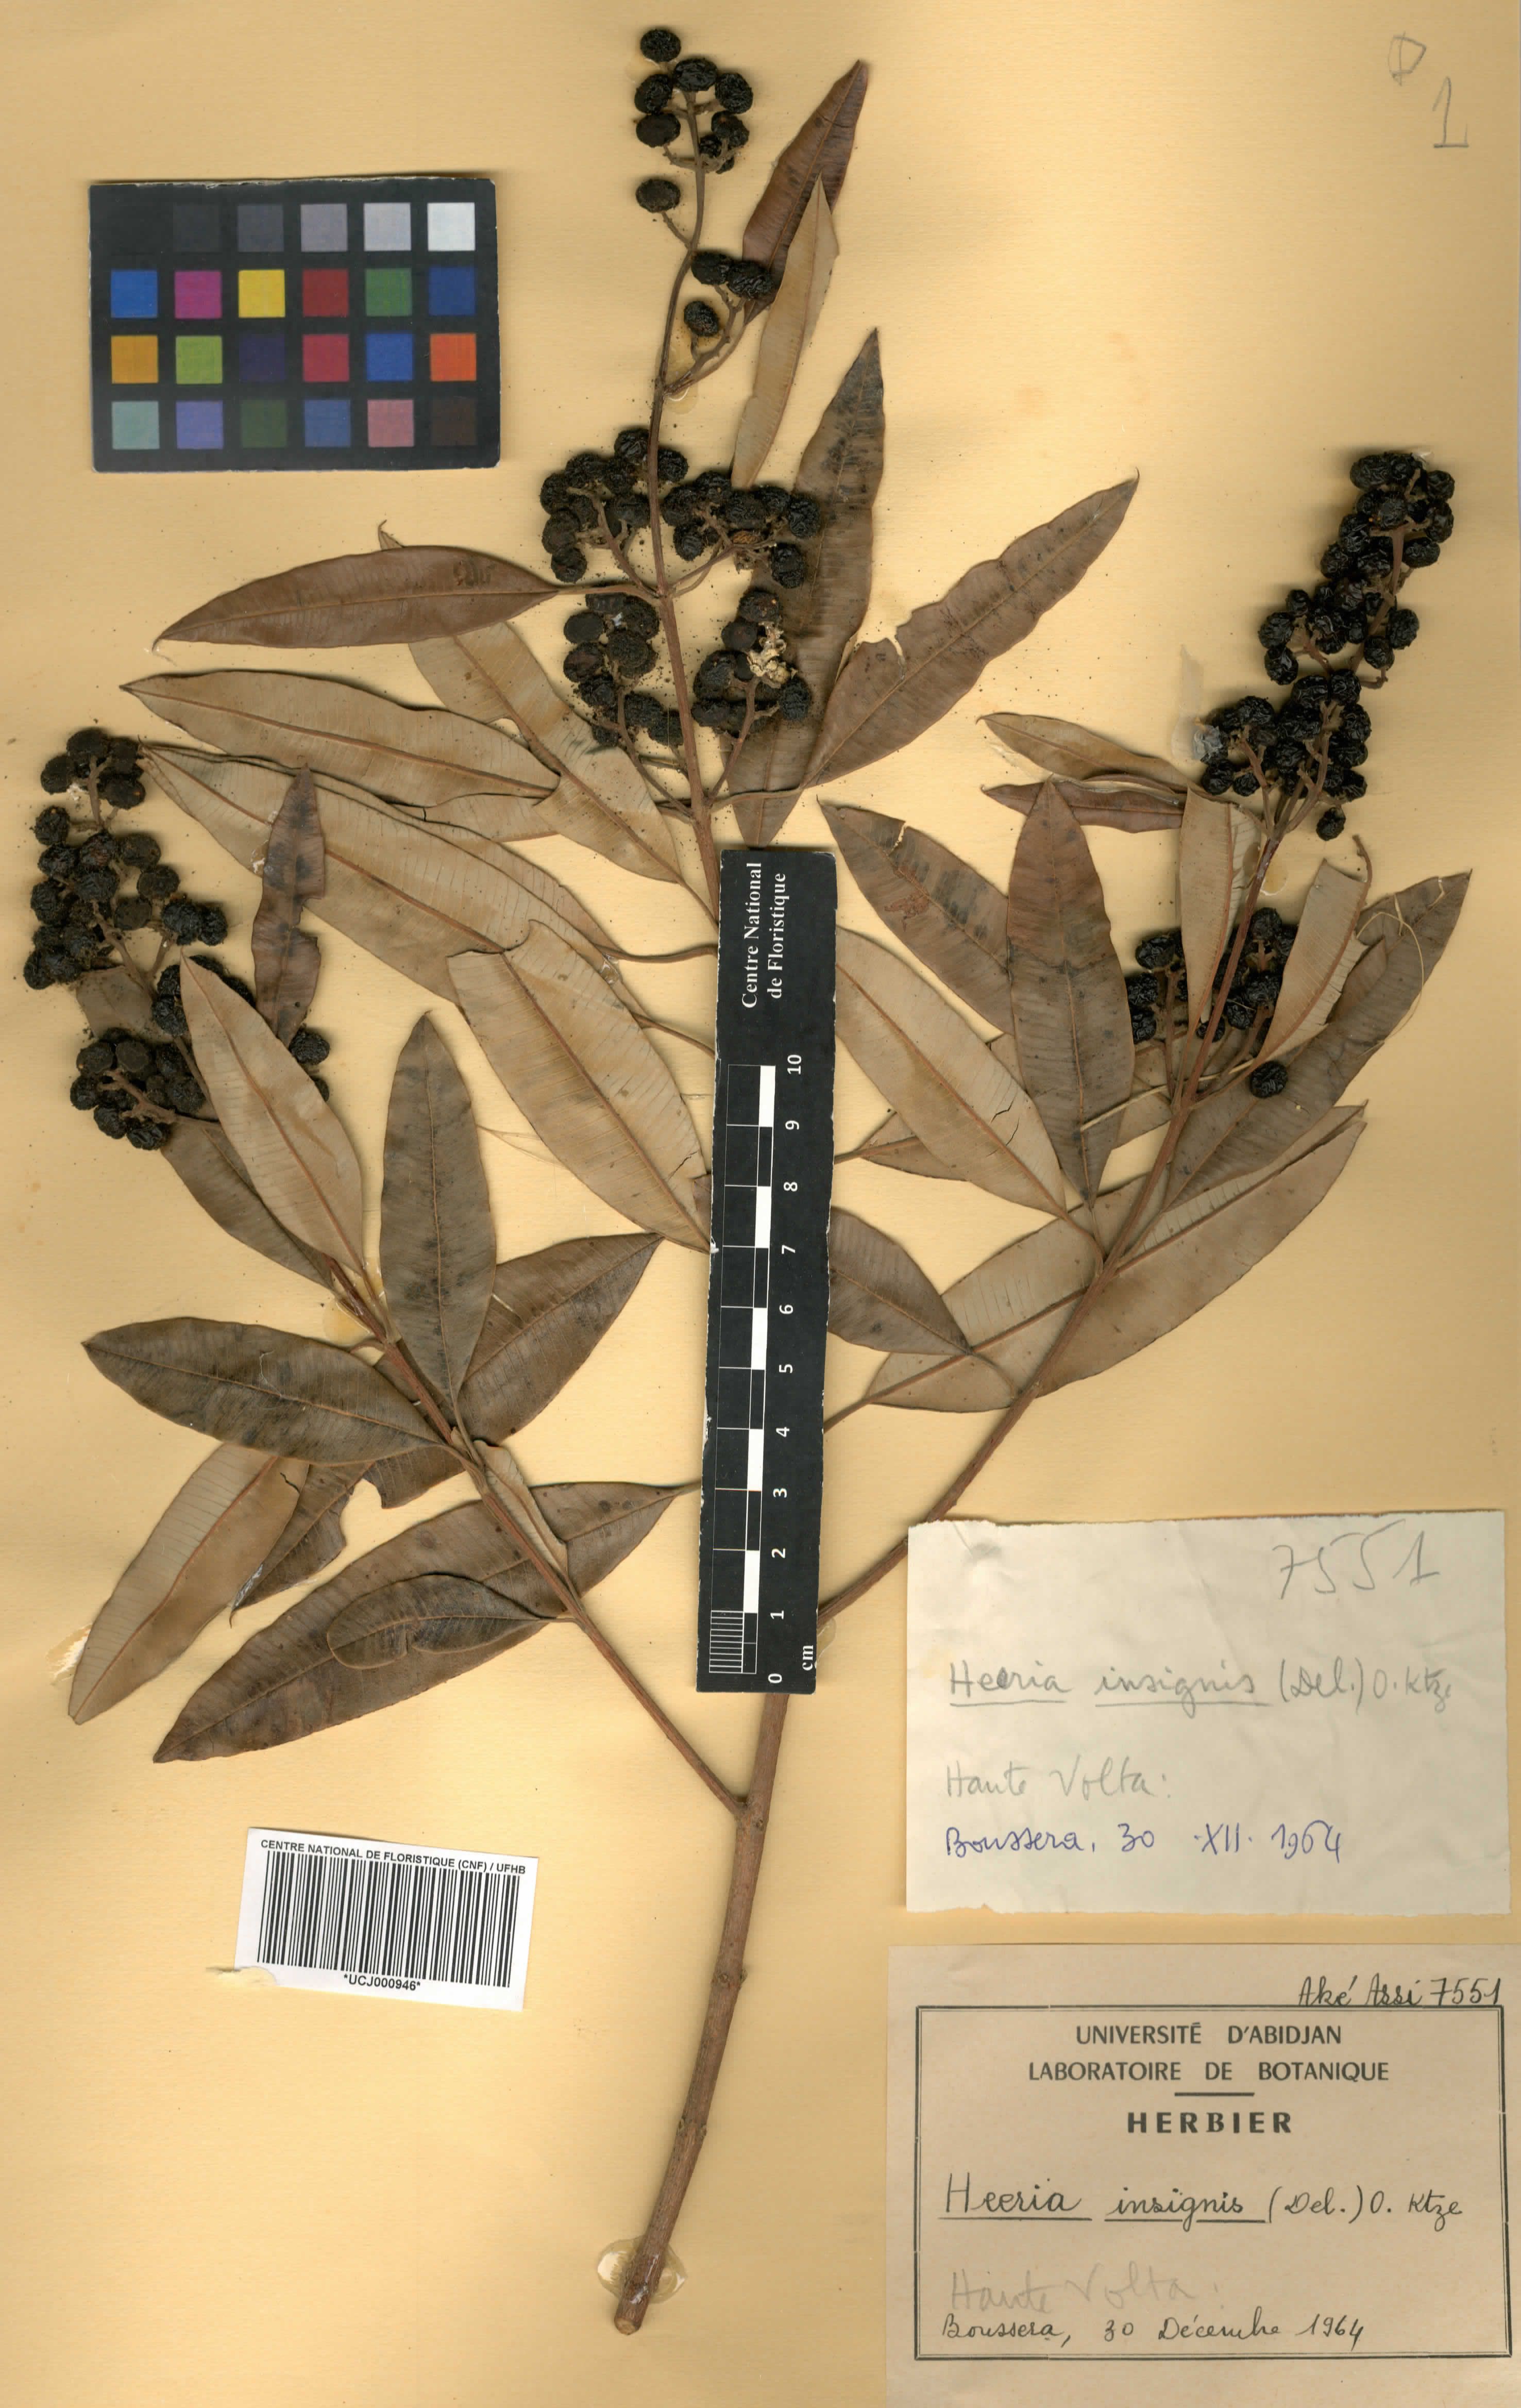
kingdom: Plantae
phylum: Tracheophyta
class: Magnoliopsida
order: Sapindales
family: Anacardiaceae
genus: Ozoroa
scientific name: Ozoroa
